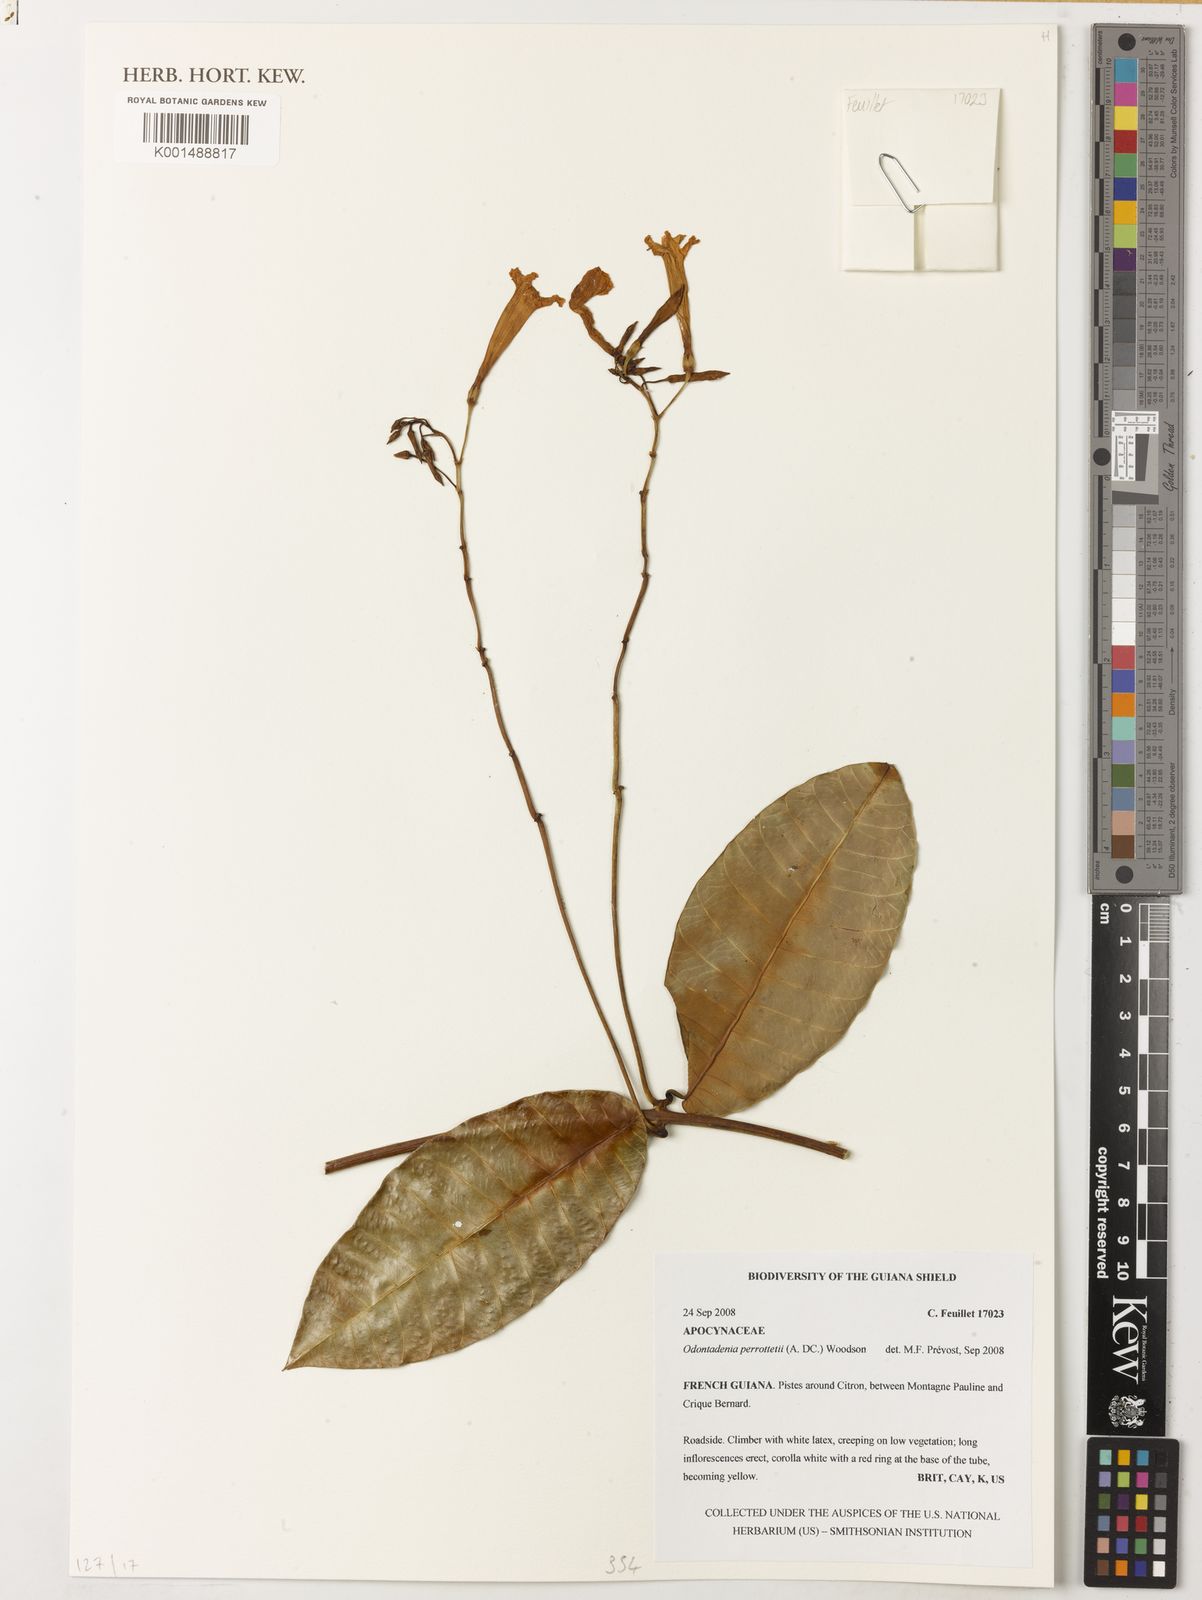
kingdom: Plantae
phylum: Tracheophyta
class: Magnoliopsida
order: Gentianales
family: Apocynaceae
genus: Odontadenia
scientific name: Odontadenia perrottetii
